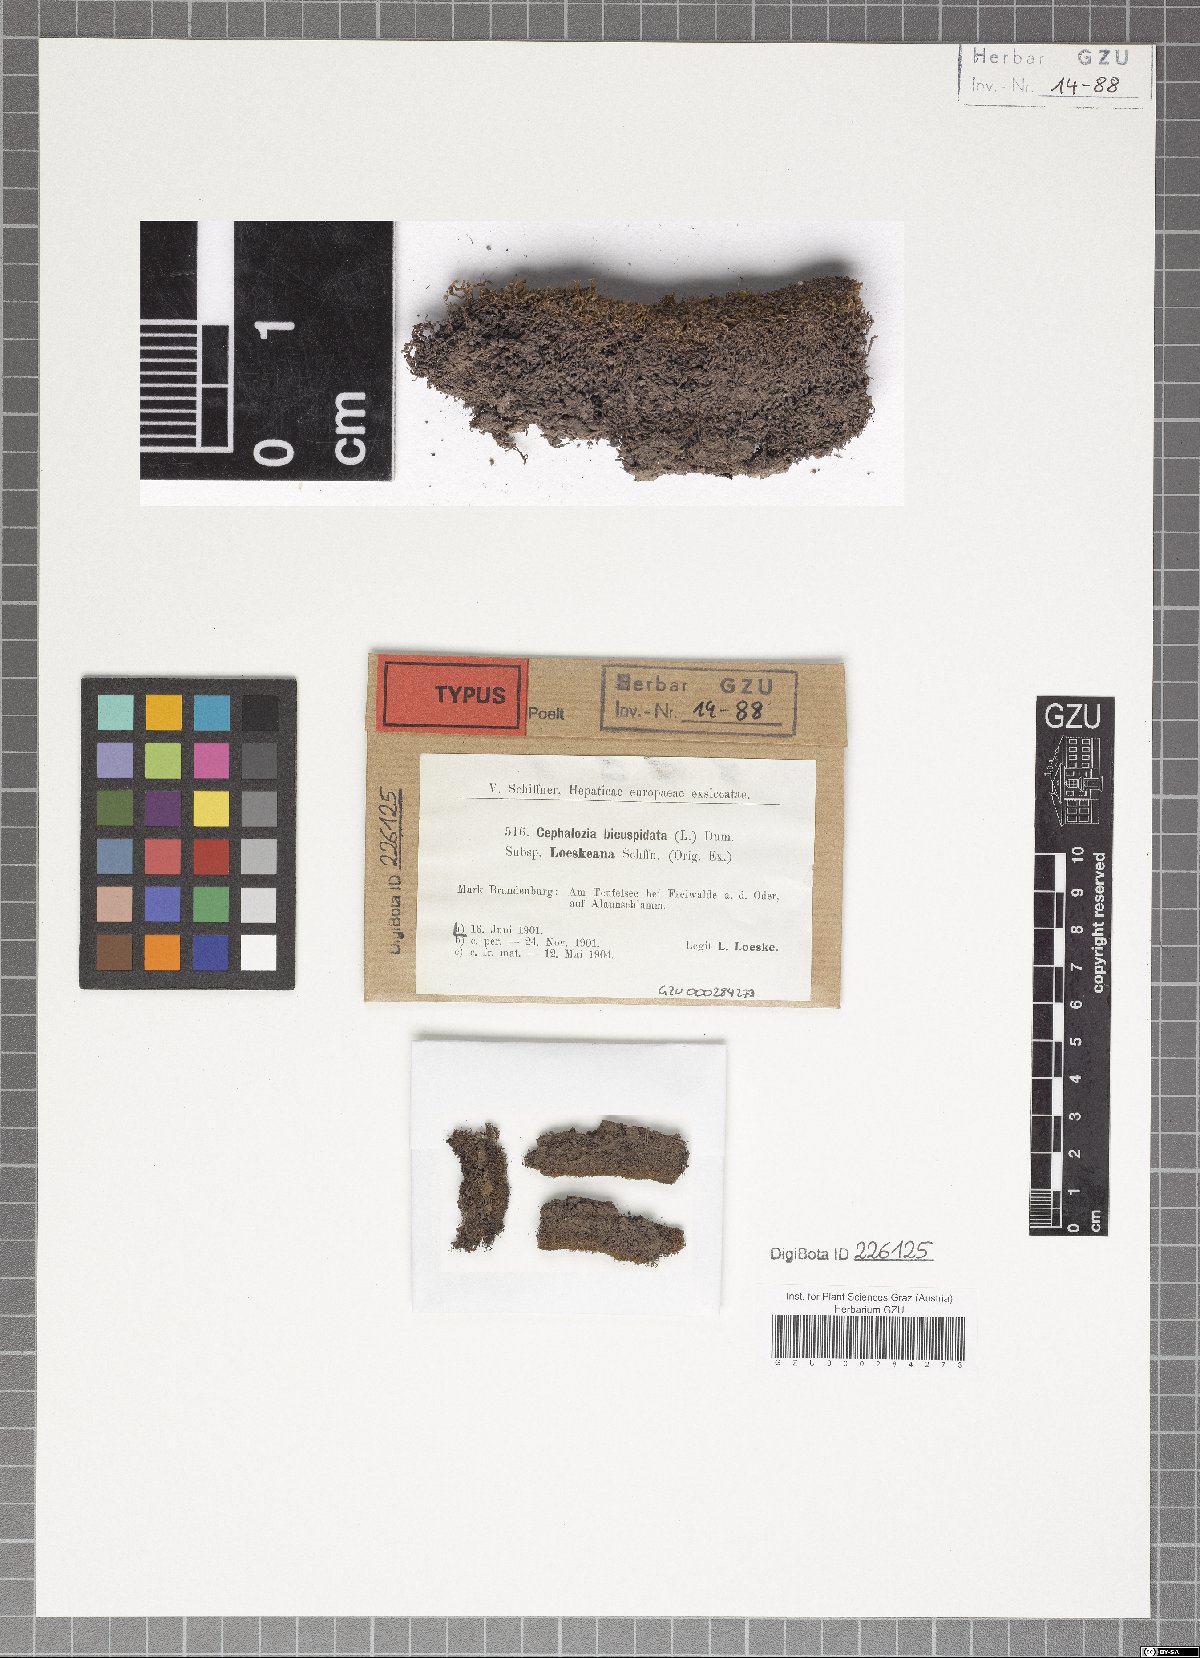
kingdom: Plantae
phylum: Marchantiophyta
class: Jungermanniopsida
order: Jungermanniales
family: Cephaloziaceae
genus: Cephalozia
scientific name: Cephalozia bicuspidata
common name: Two-horned pincerwort
